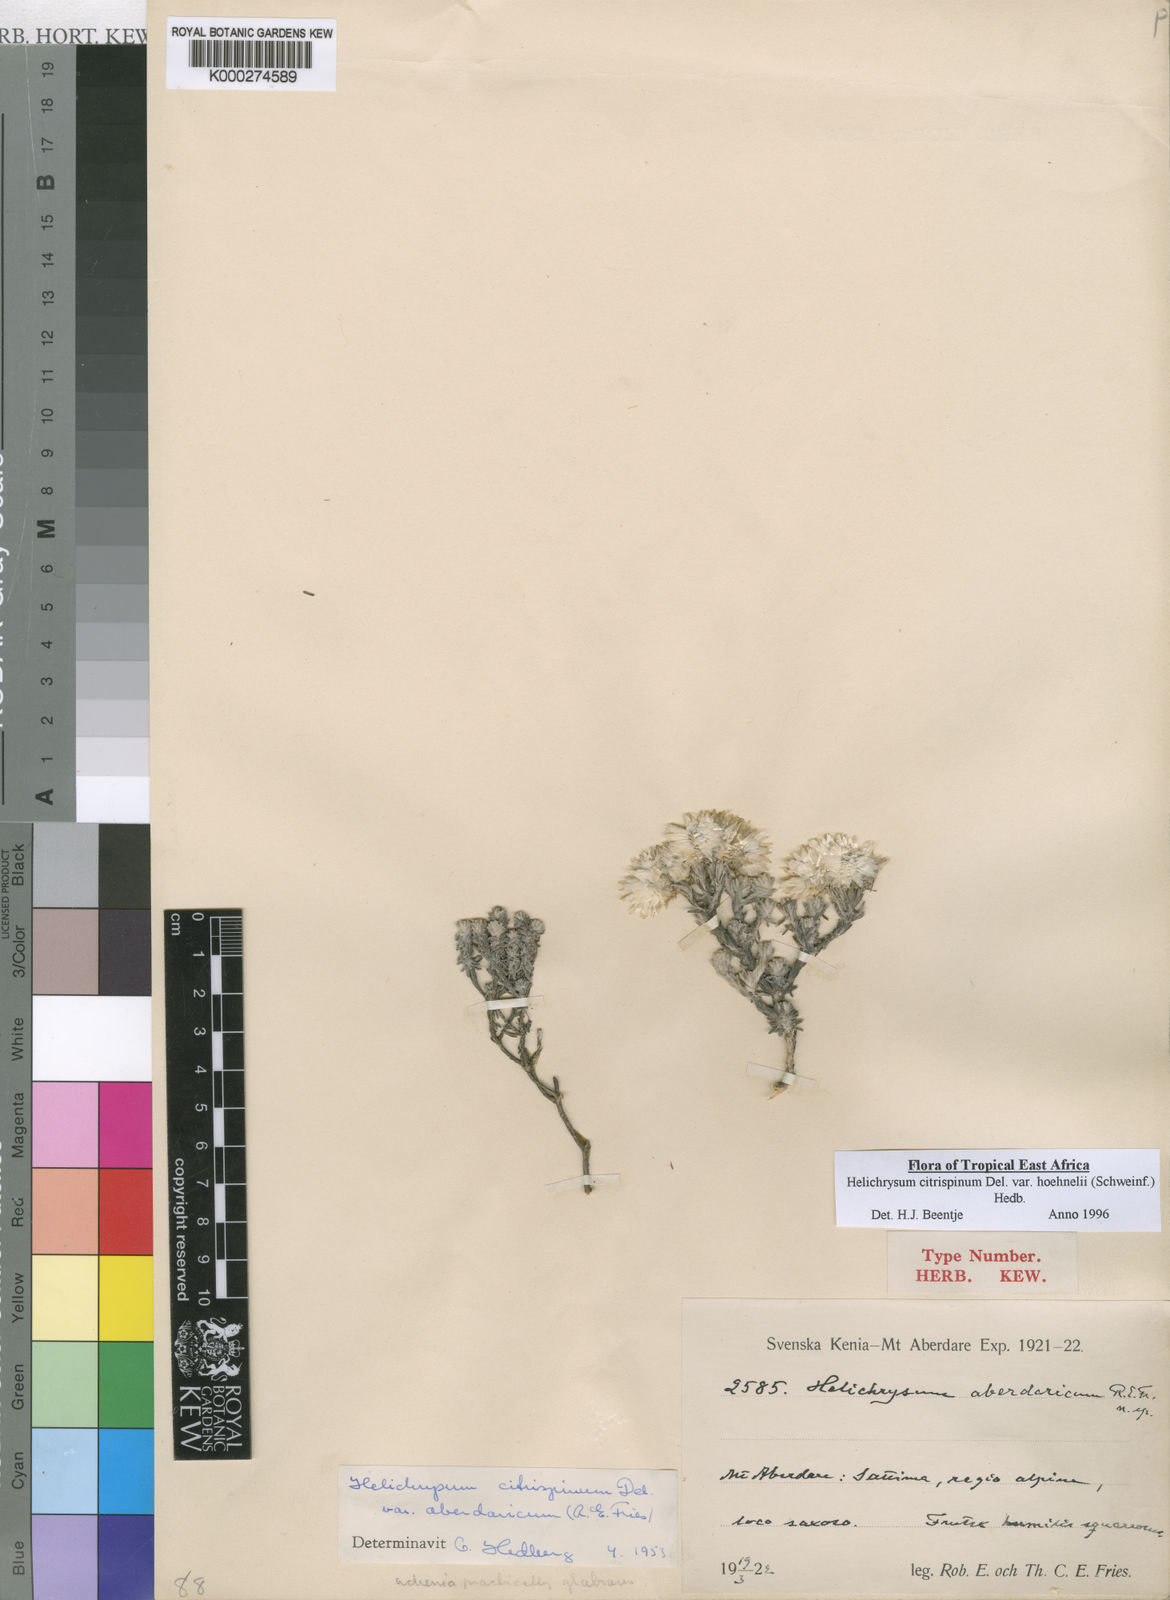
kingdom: Plantae
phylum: Tracheophyta
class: Magnoliopsida
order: Asterales
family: Asteraceae
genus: Helichrysum
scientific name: Helichrysum citrispinum
